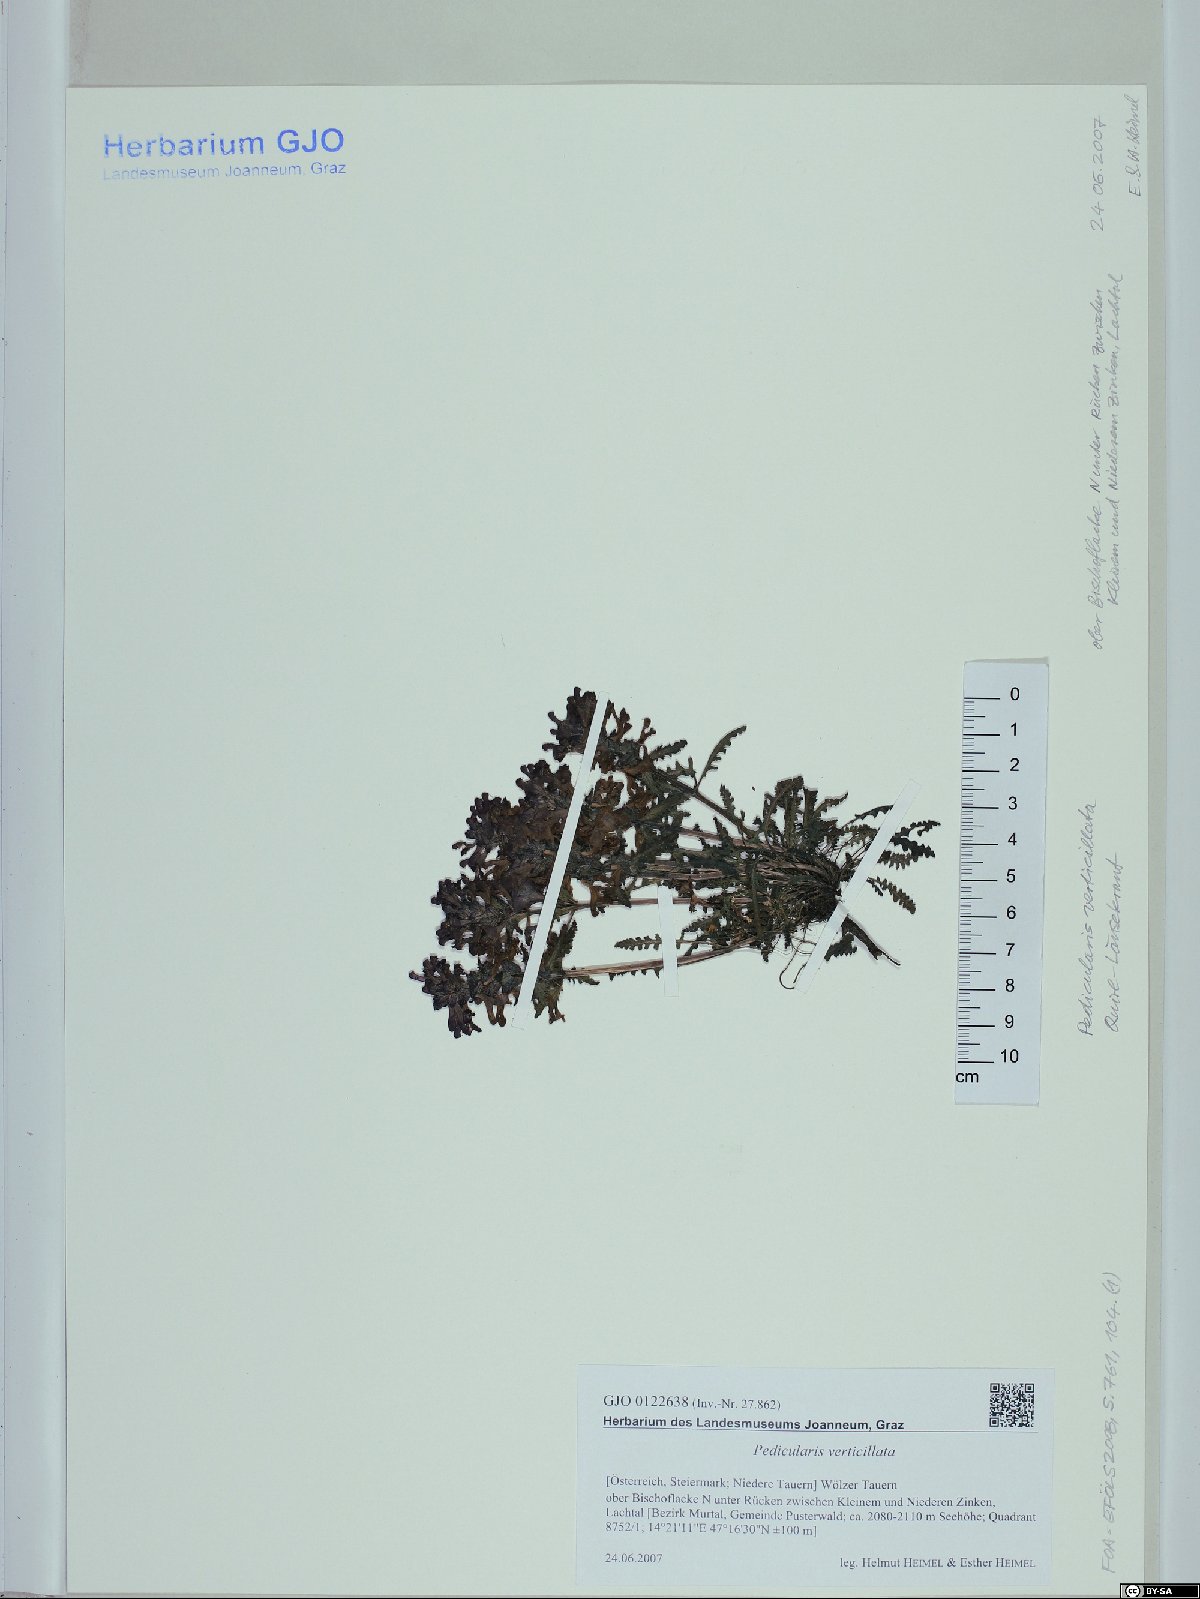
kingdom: Plantae
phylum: Tracheophyta
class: Magnoliopsida
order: Lamiales
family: Orobanchaceae
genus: Pedicularis
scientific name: Pedicularis verticillata
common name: Whorled lousewort
